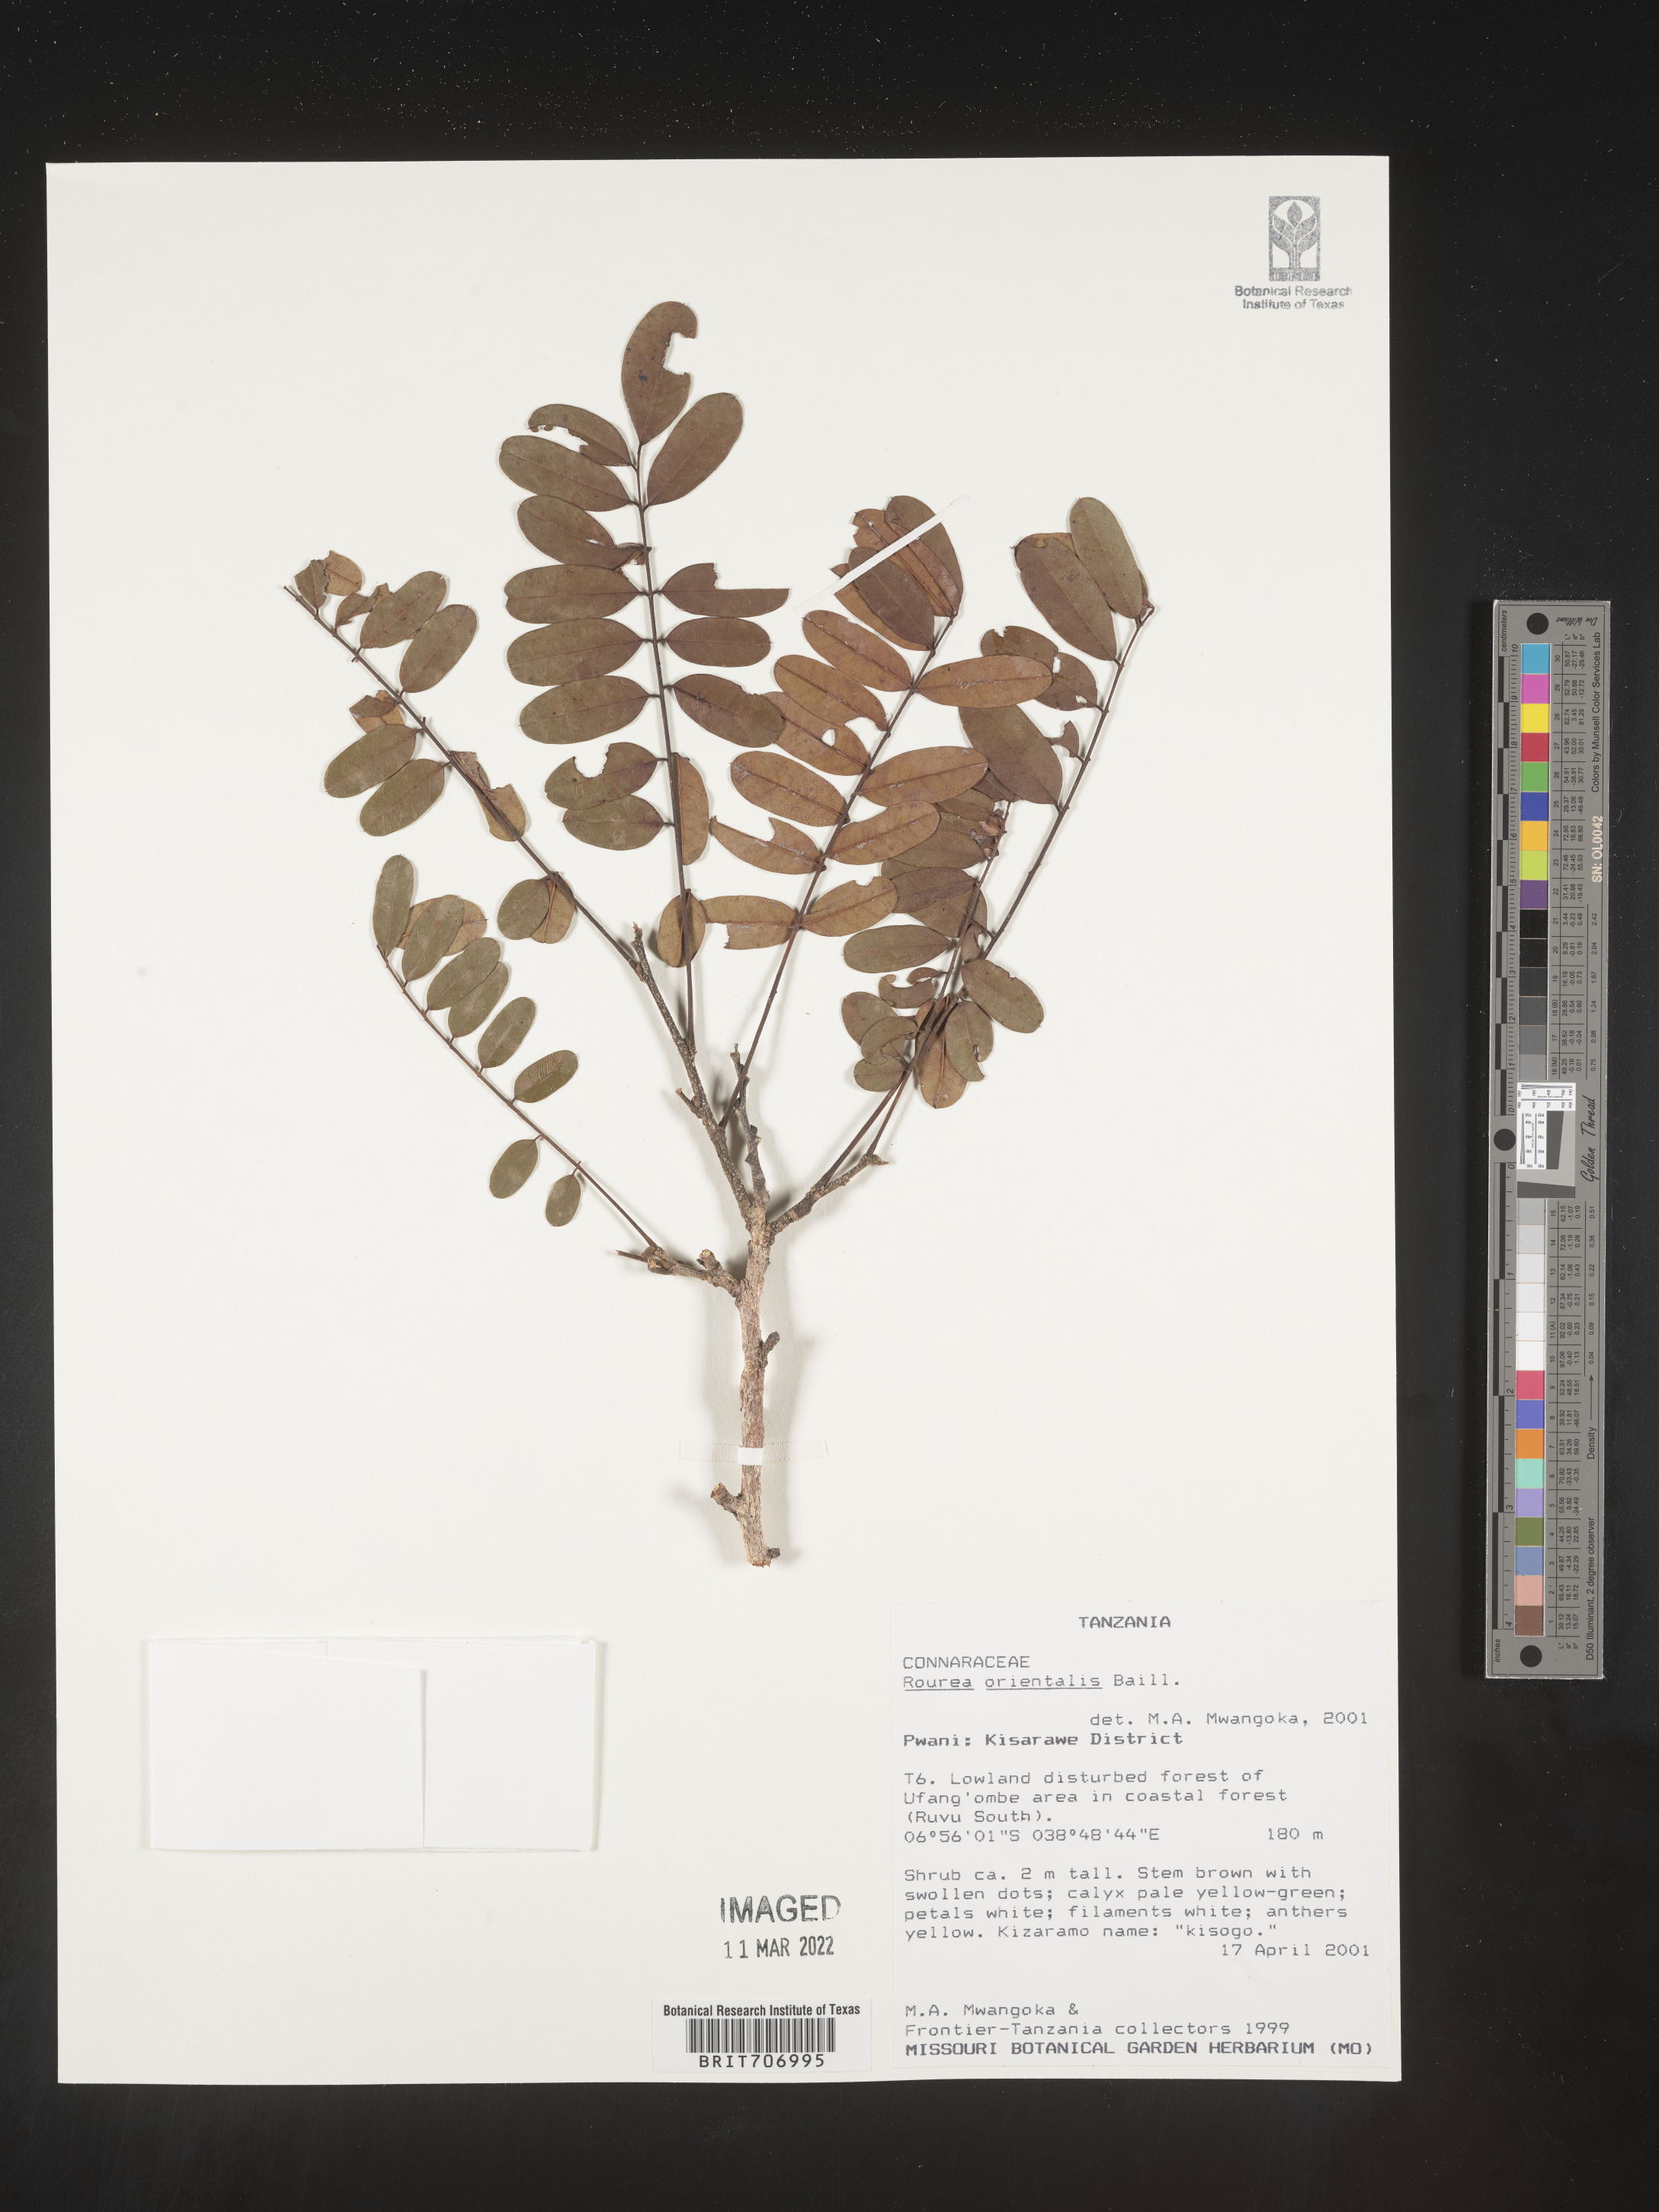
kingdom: Plantae
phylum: Tracheophyta
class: Magnoliopsida
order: Oxalidales
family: Connaraceae
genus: Rourea
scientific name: Rourea
